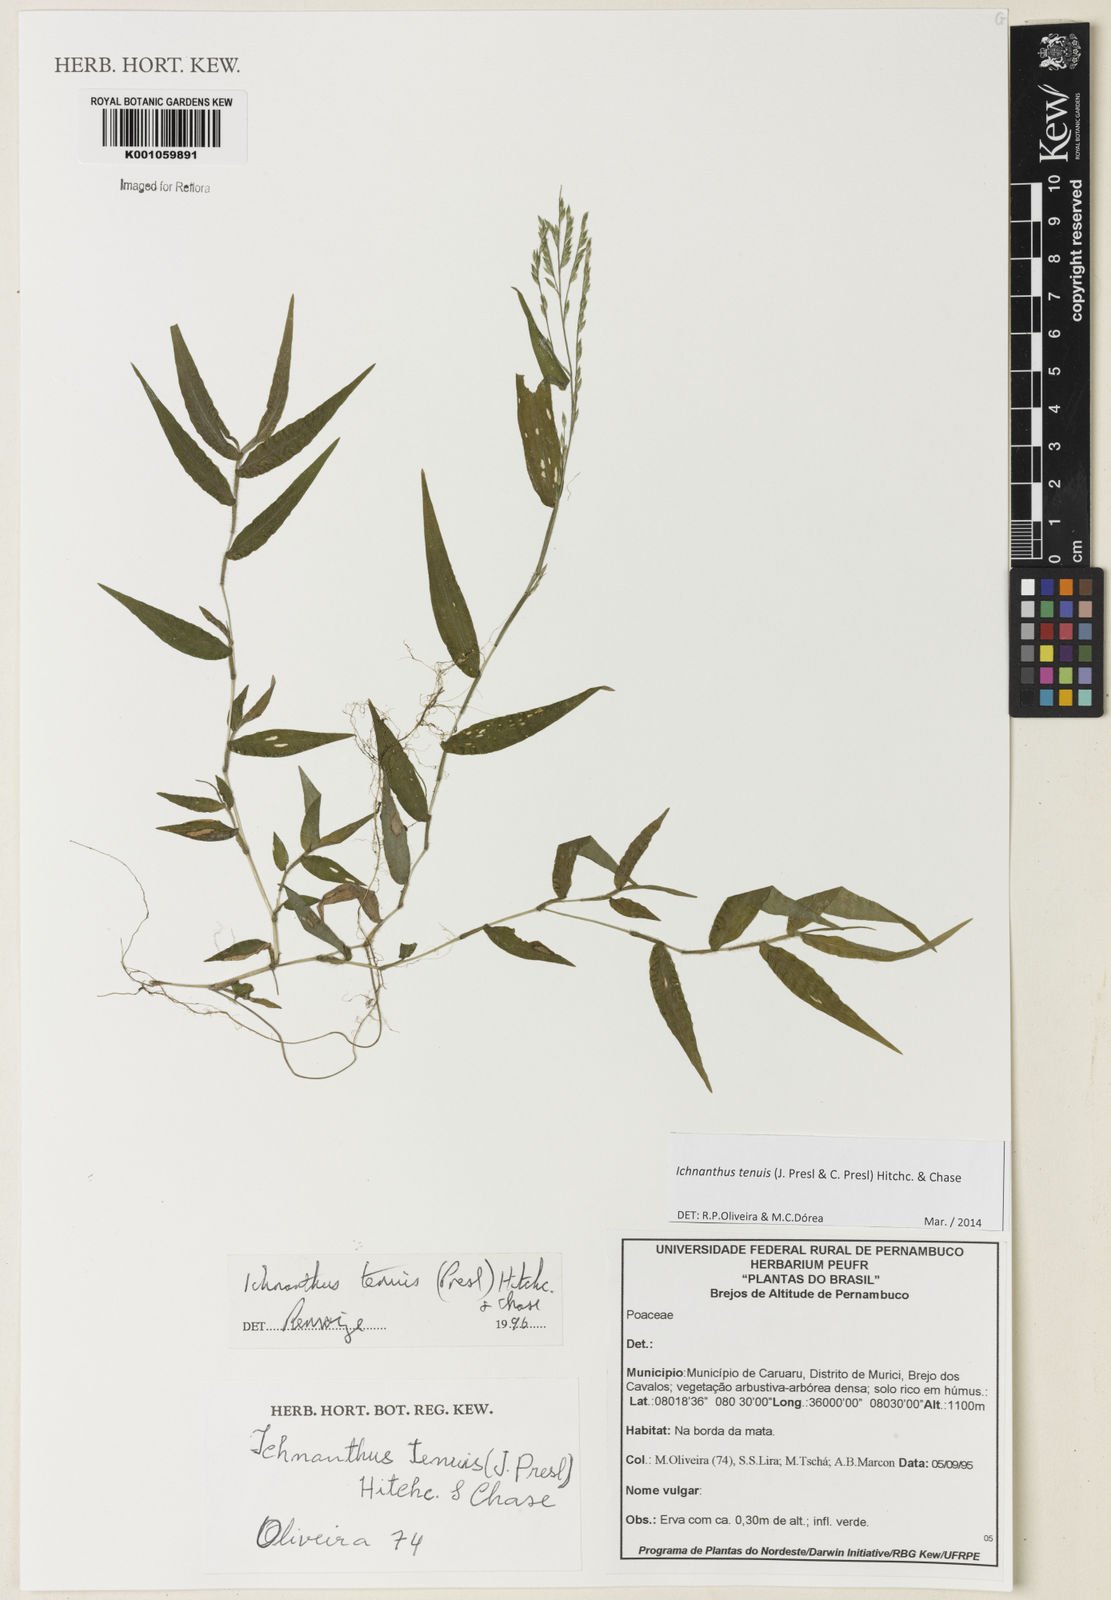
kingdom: Plantae
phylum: Tracheophyta
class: Liliopsida
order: Poales
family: Poaceae
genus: Ichnanthus
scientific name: Ichnanthus tenuis
